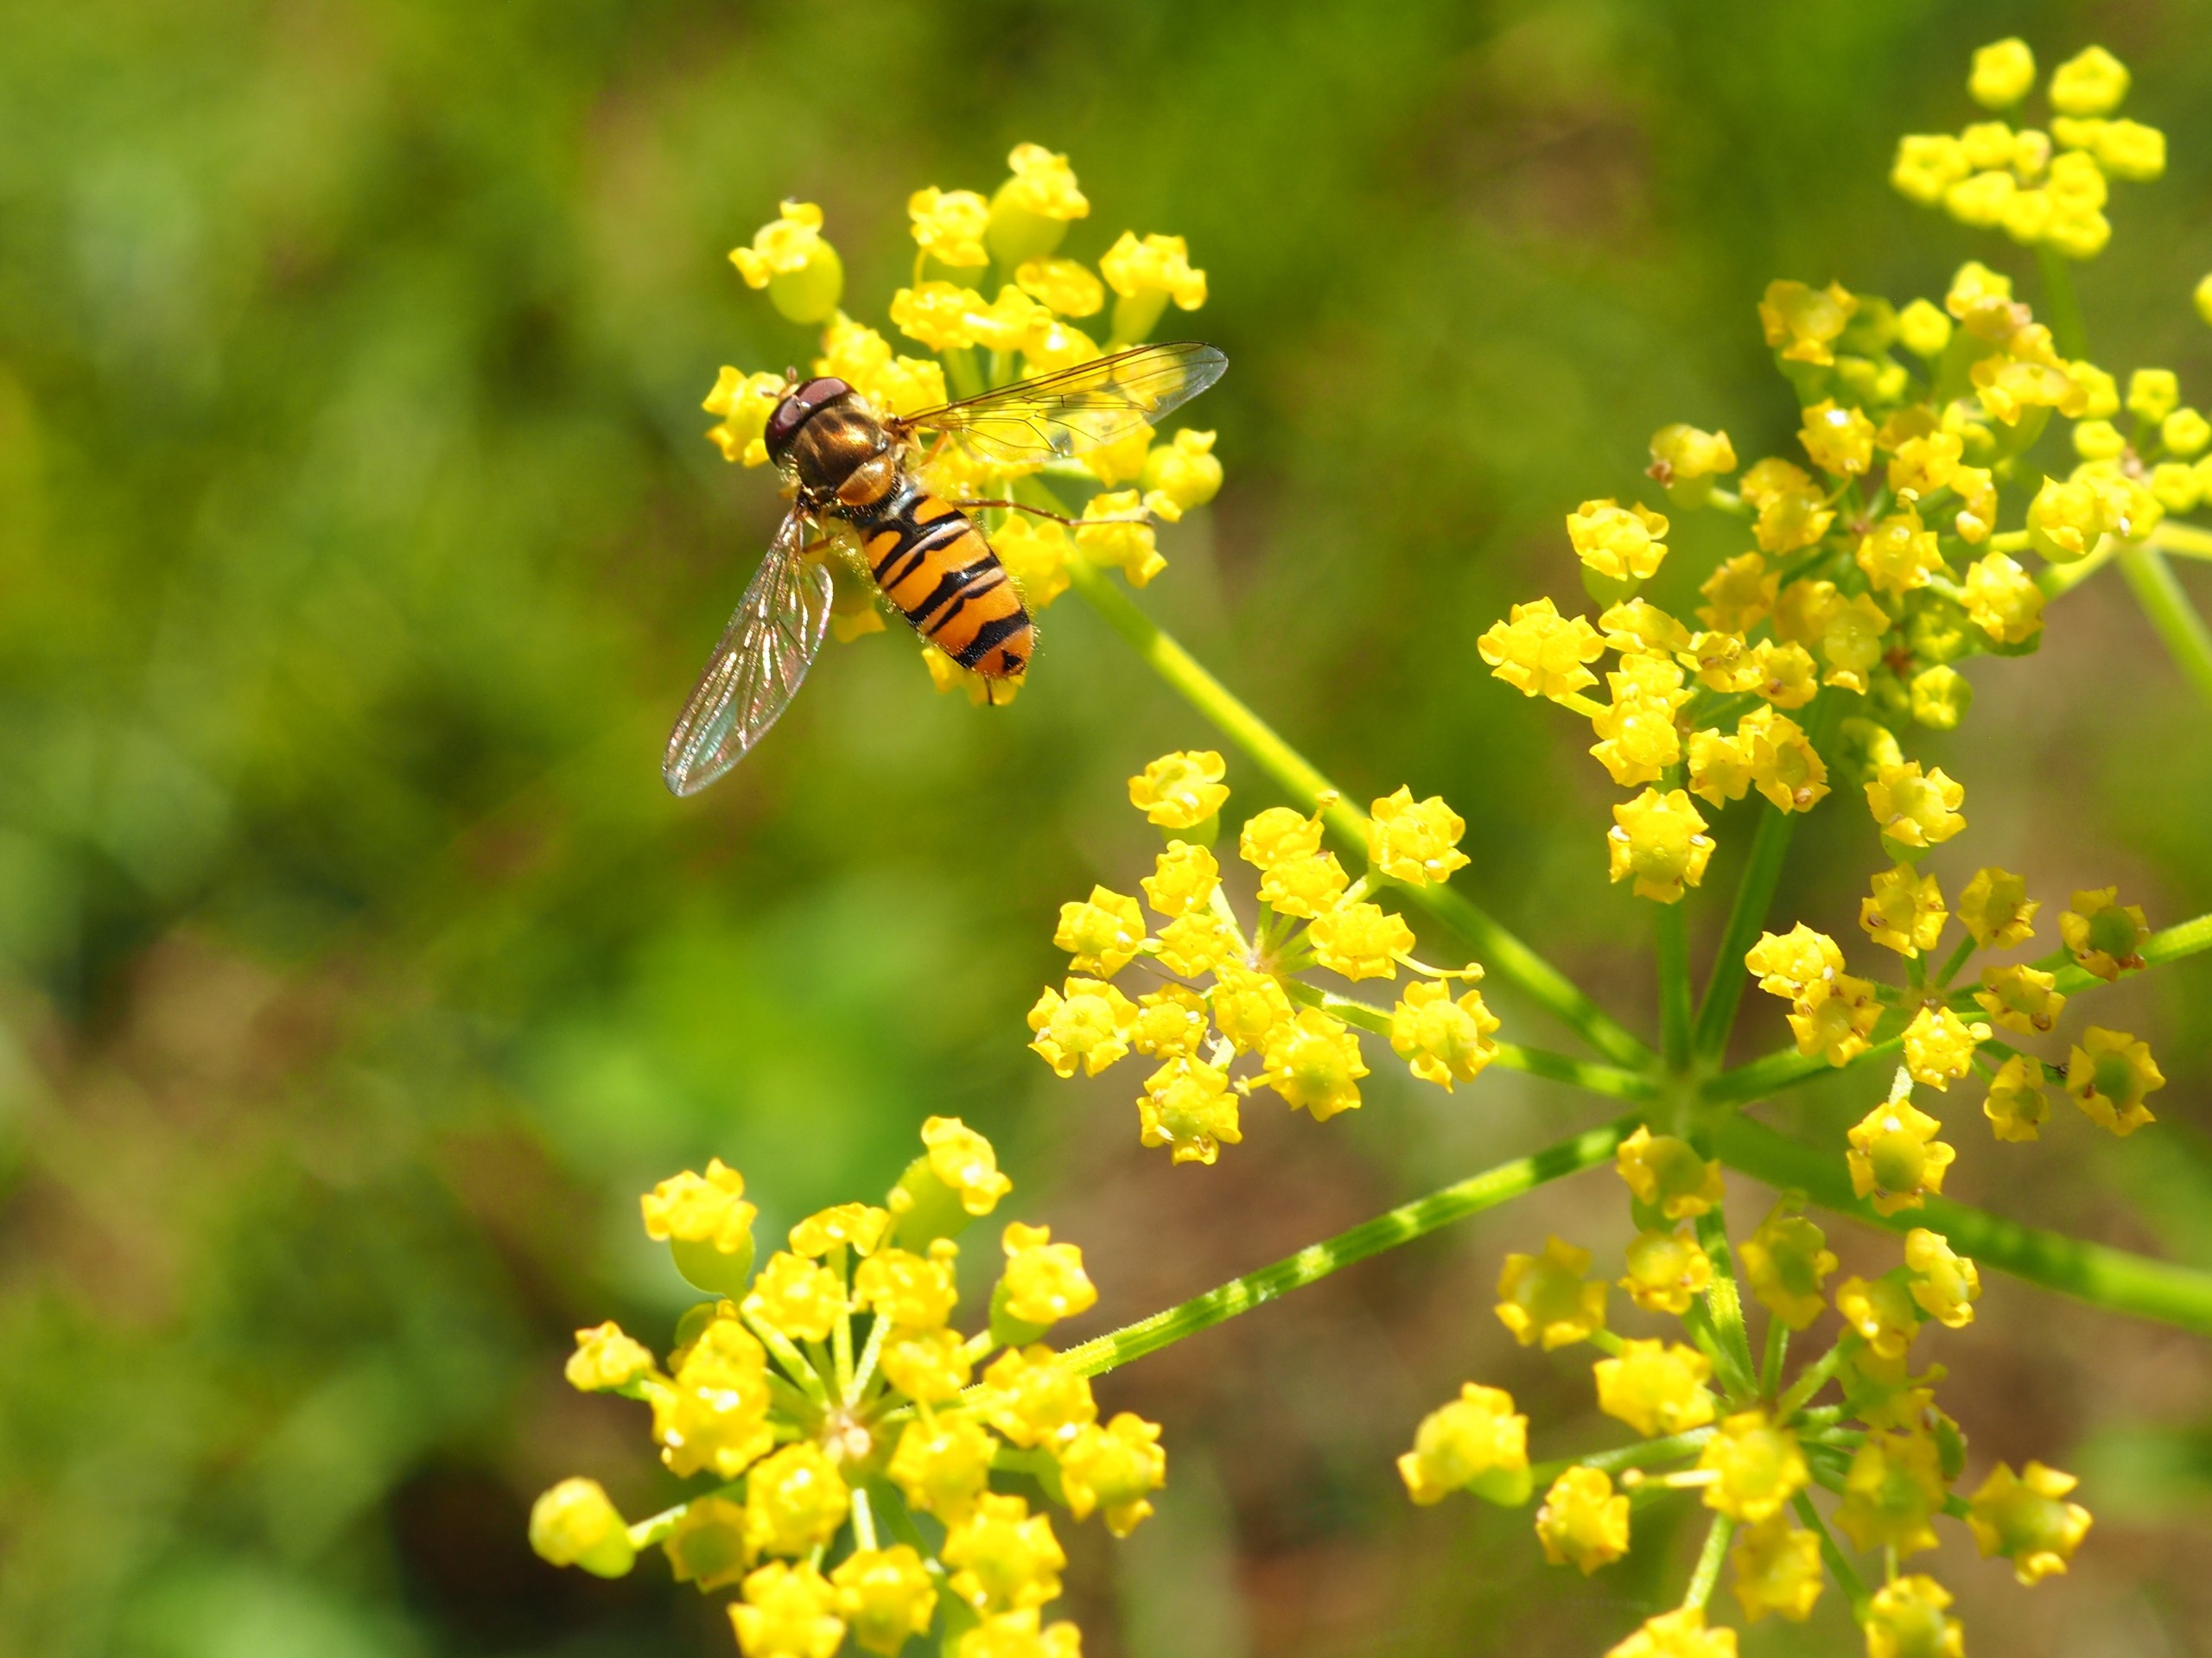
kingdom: Animalia
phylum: Arthropoda
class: Insecta
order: Diptera
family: Syrphidae
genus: Episyrphus
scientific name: Episyrphus balteatus
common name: Dobbeltbåndet svirreflue
